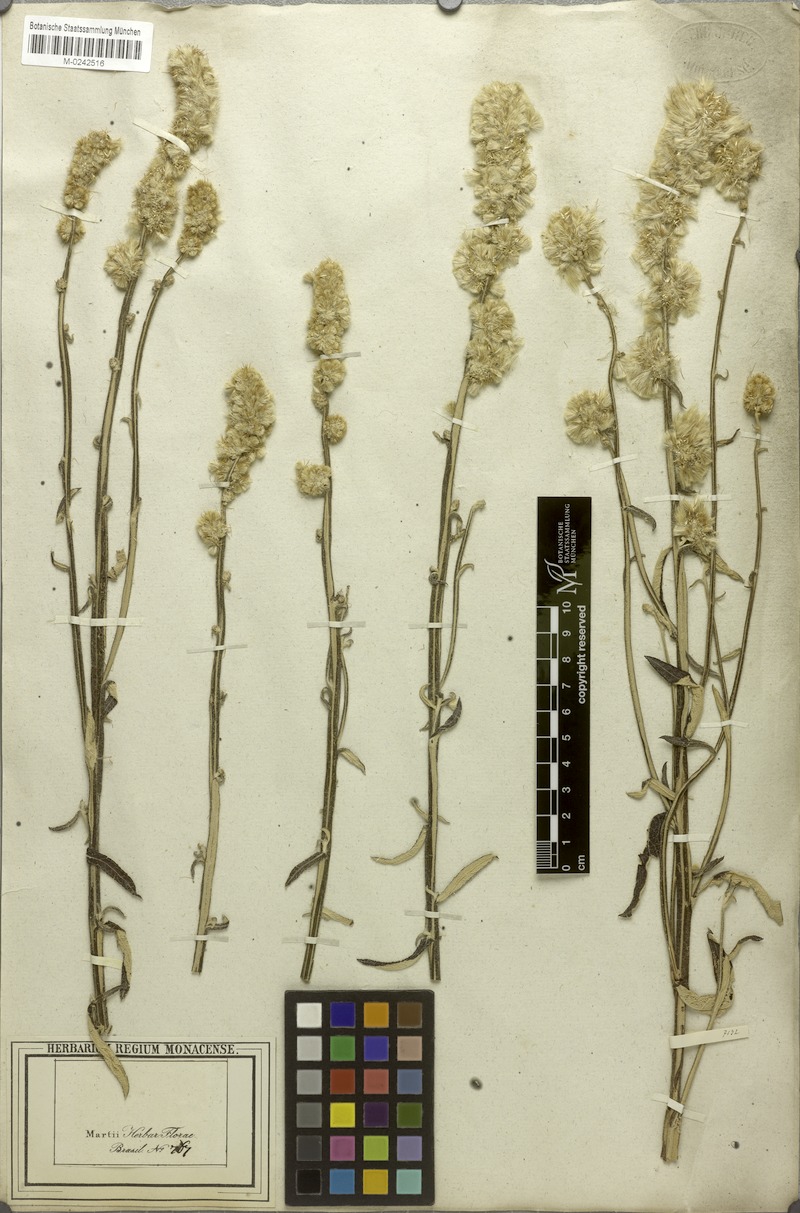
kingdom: Plantae
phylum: Tracheophyta
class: Magnoliopsida
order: Asterales
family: Asteraceae
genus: Pterocaulon
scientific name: Pterocaulon virgatum
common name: Wand blackroot
